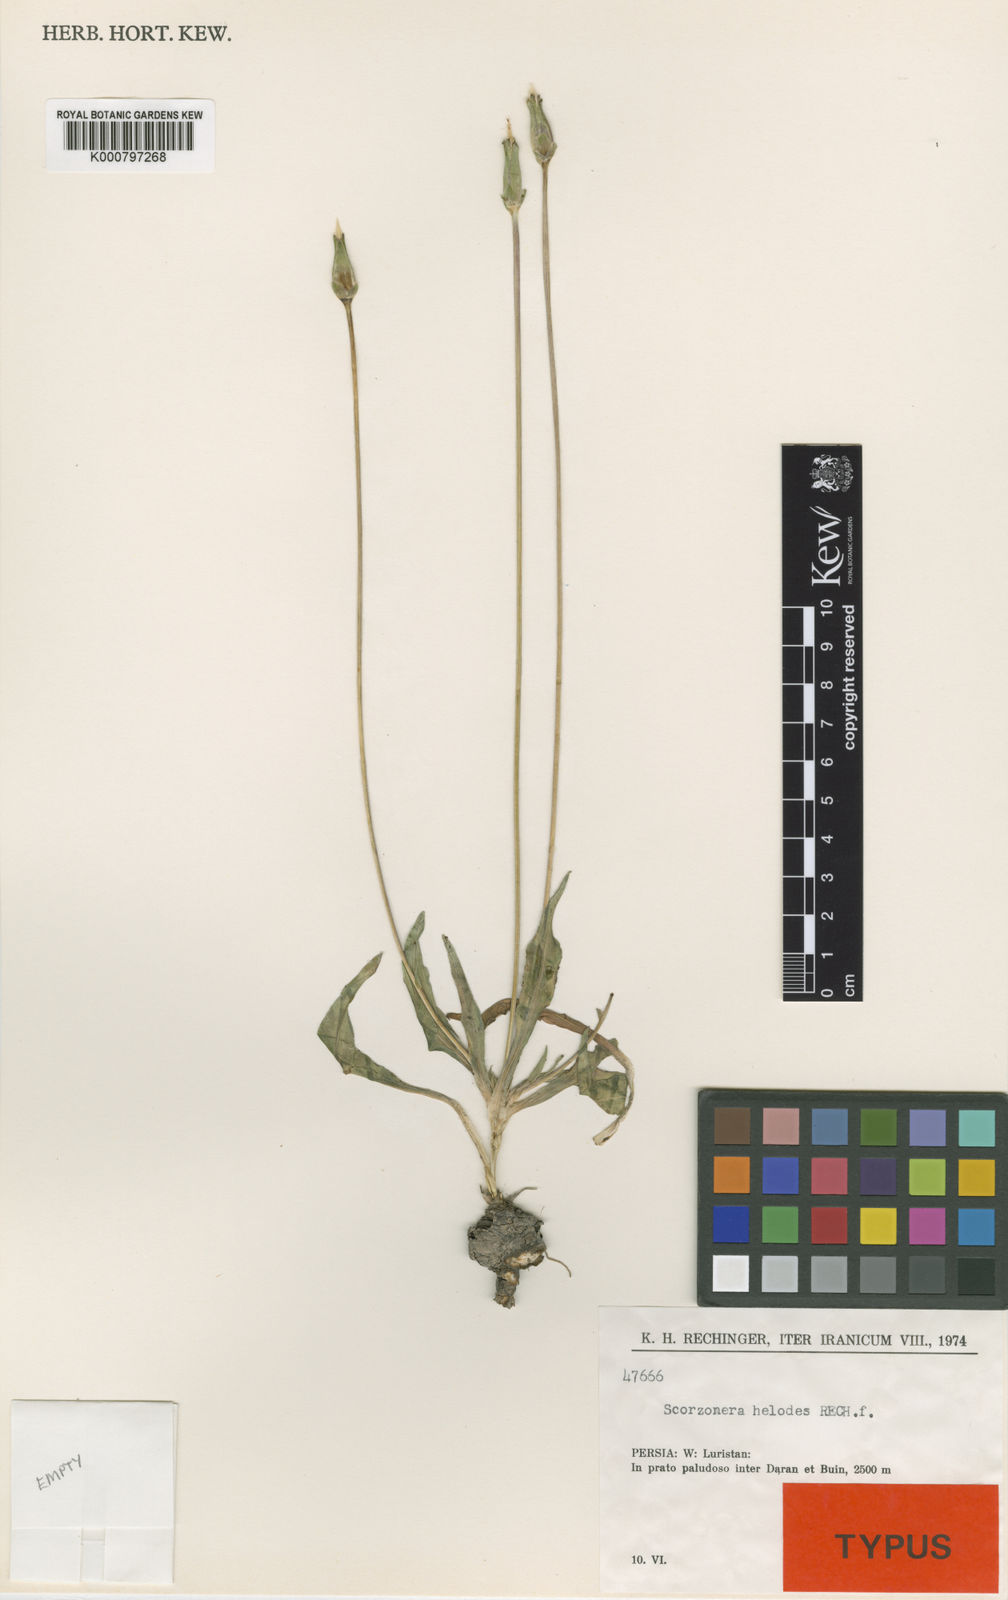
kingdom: Plantae
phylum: Tracheophyta
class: Magnoliopsida
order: Asterales
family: Asteraceae
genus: Scorzonera
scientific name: Scorzonera helodes
